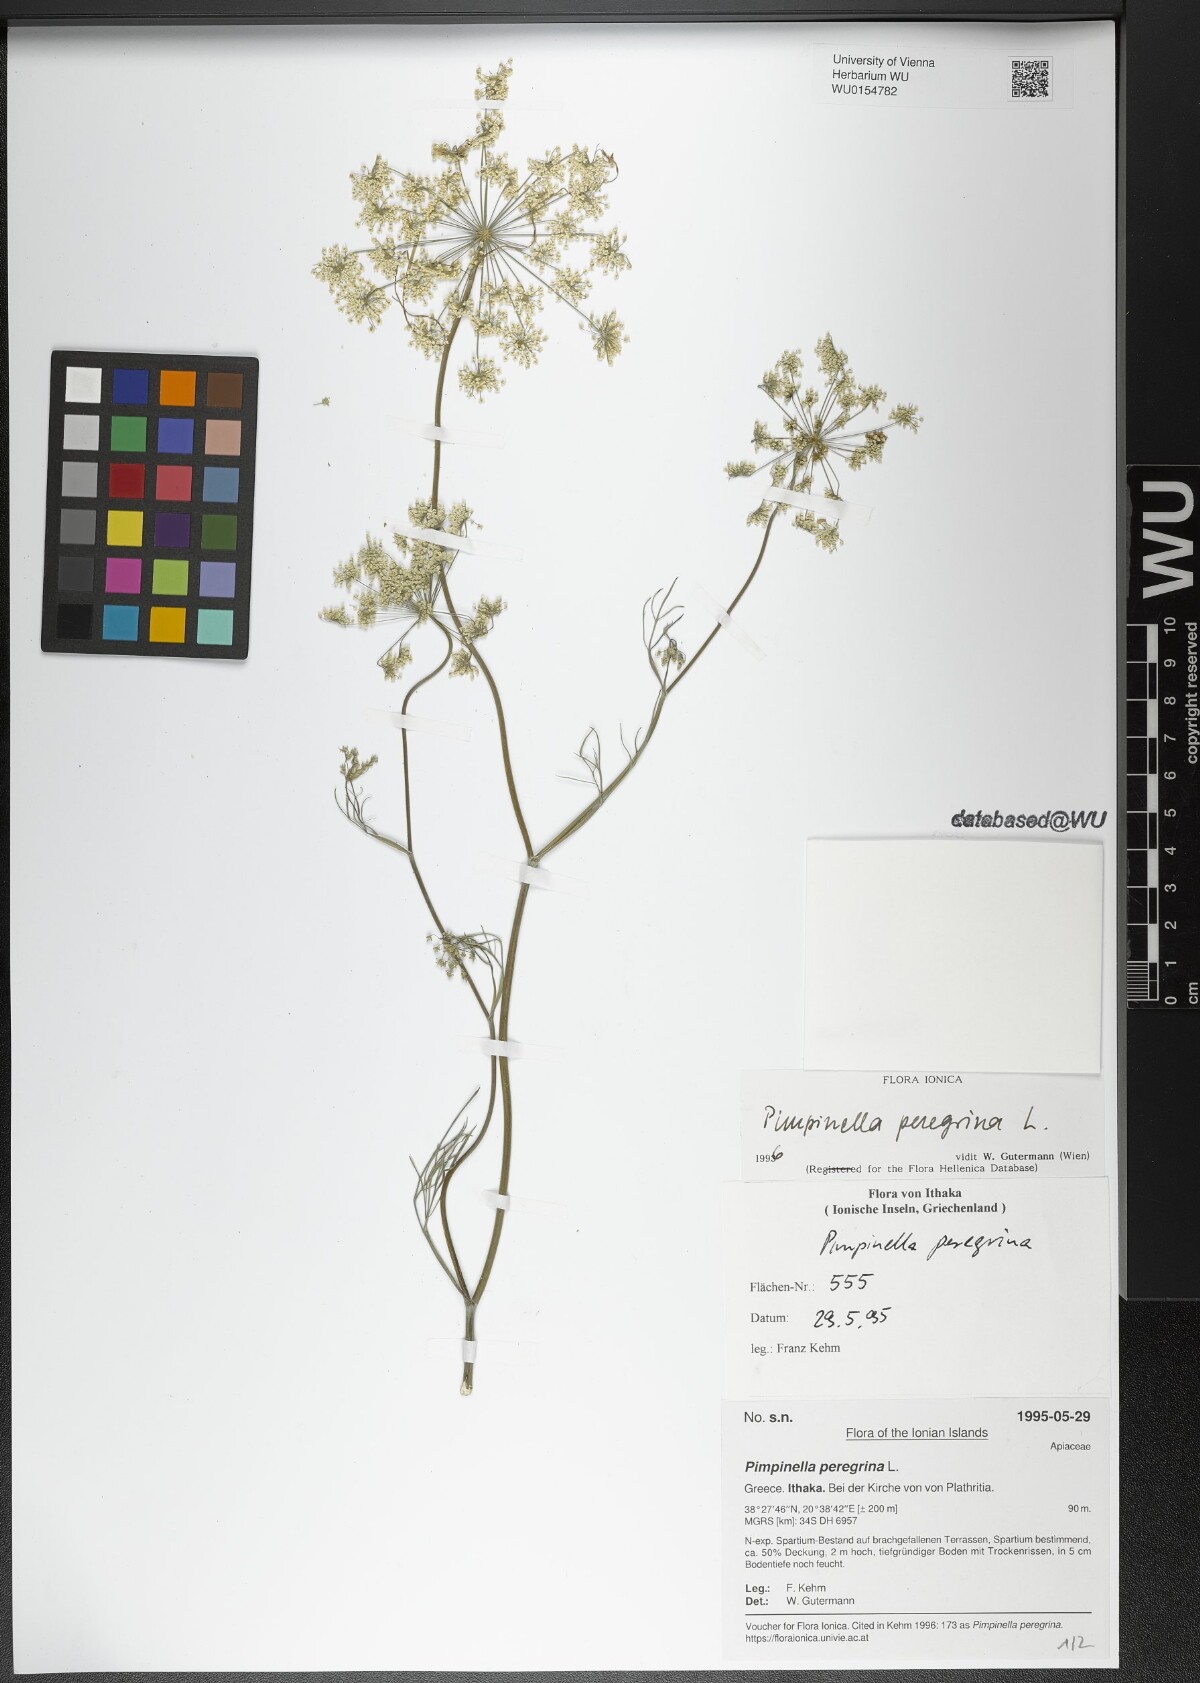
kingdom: Plantae
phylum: Tracheophyta
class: Magnoliopsida
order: Apiales
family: Apiaceae
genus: Pimpinella
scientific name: Pimpinella peregrina
